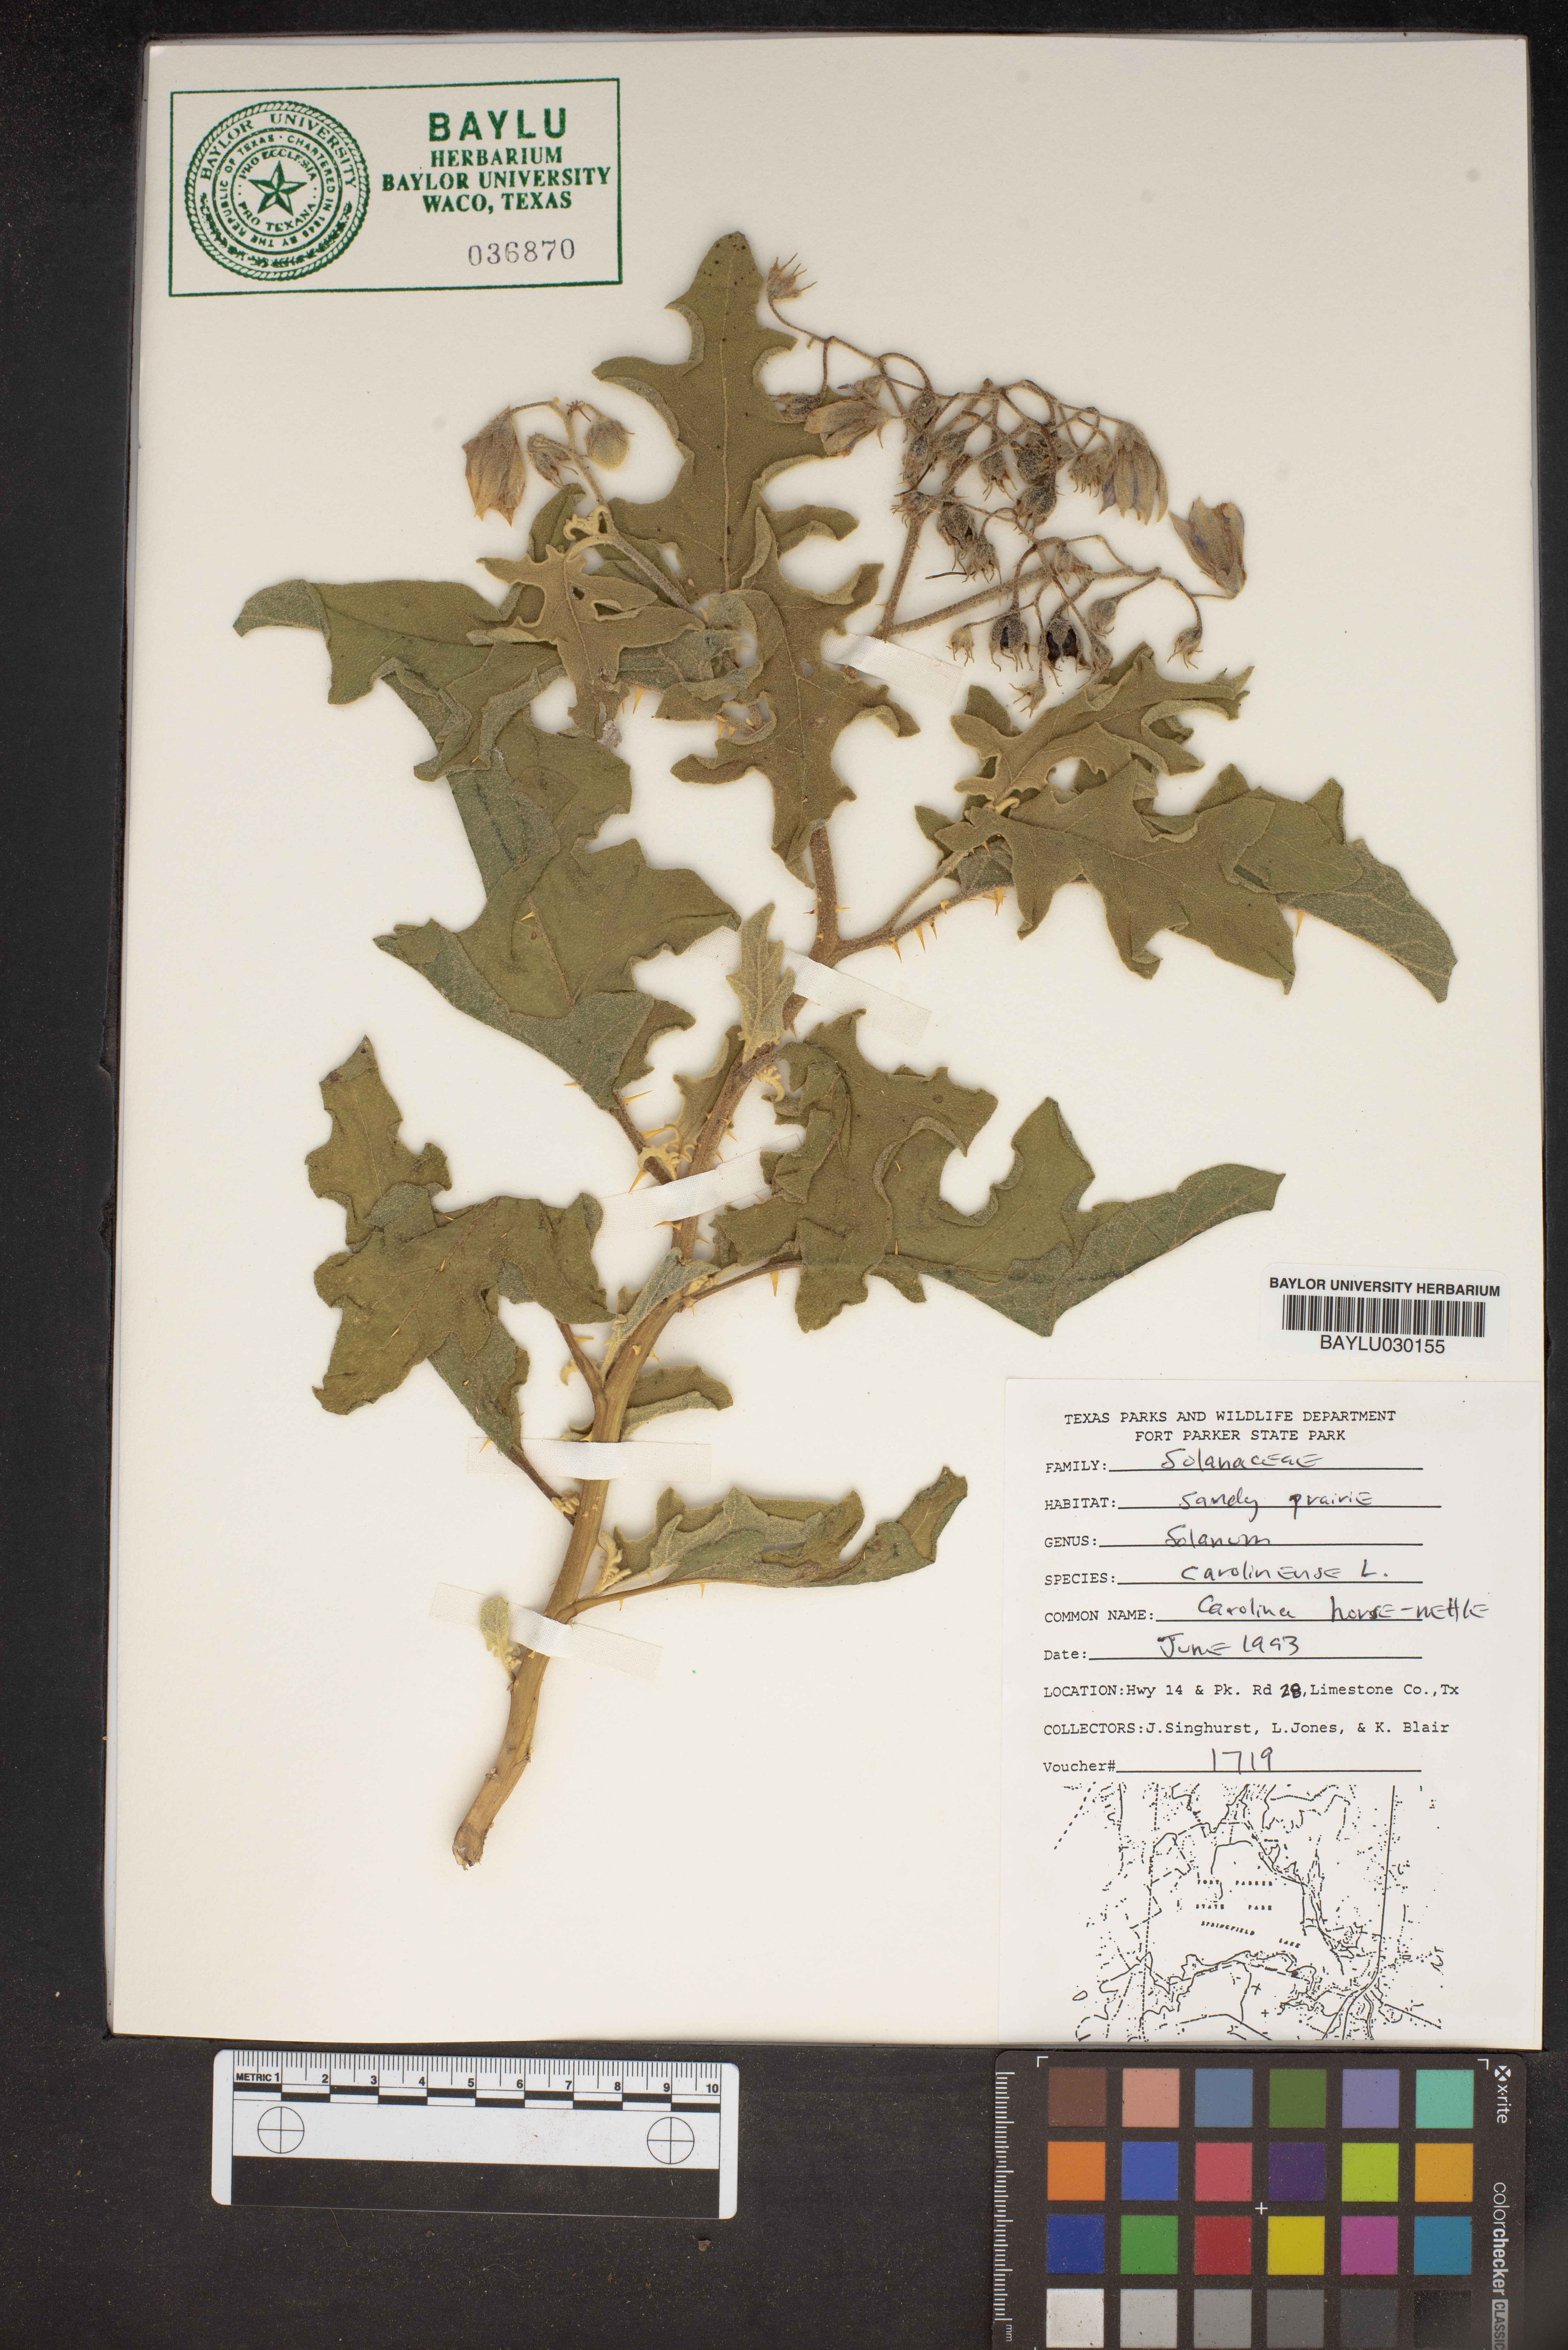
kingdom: Plantae
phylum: Tracheophyta
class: Magnoliopsida
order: Solanales
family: Solanaceae
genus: Solanum
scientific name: Solanum carolinense
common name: Horse-nettle
